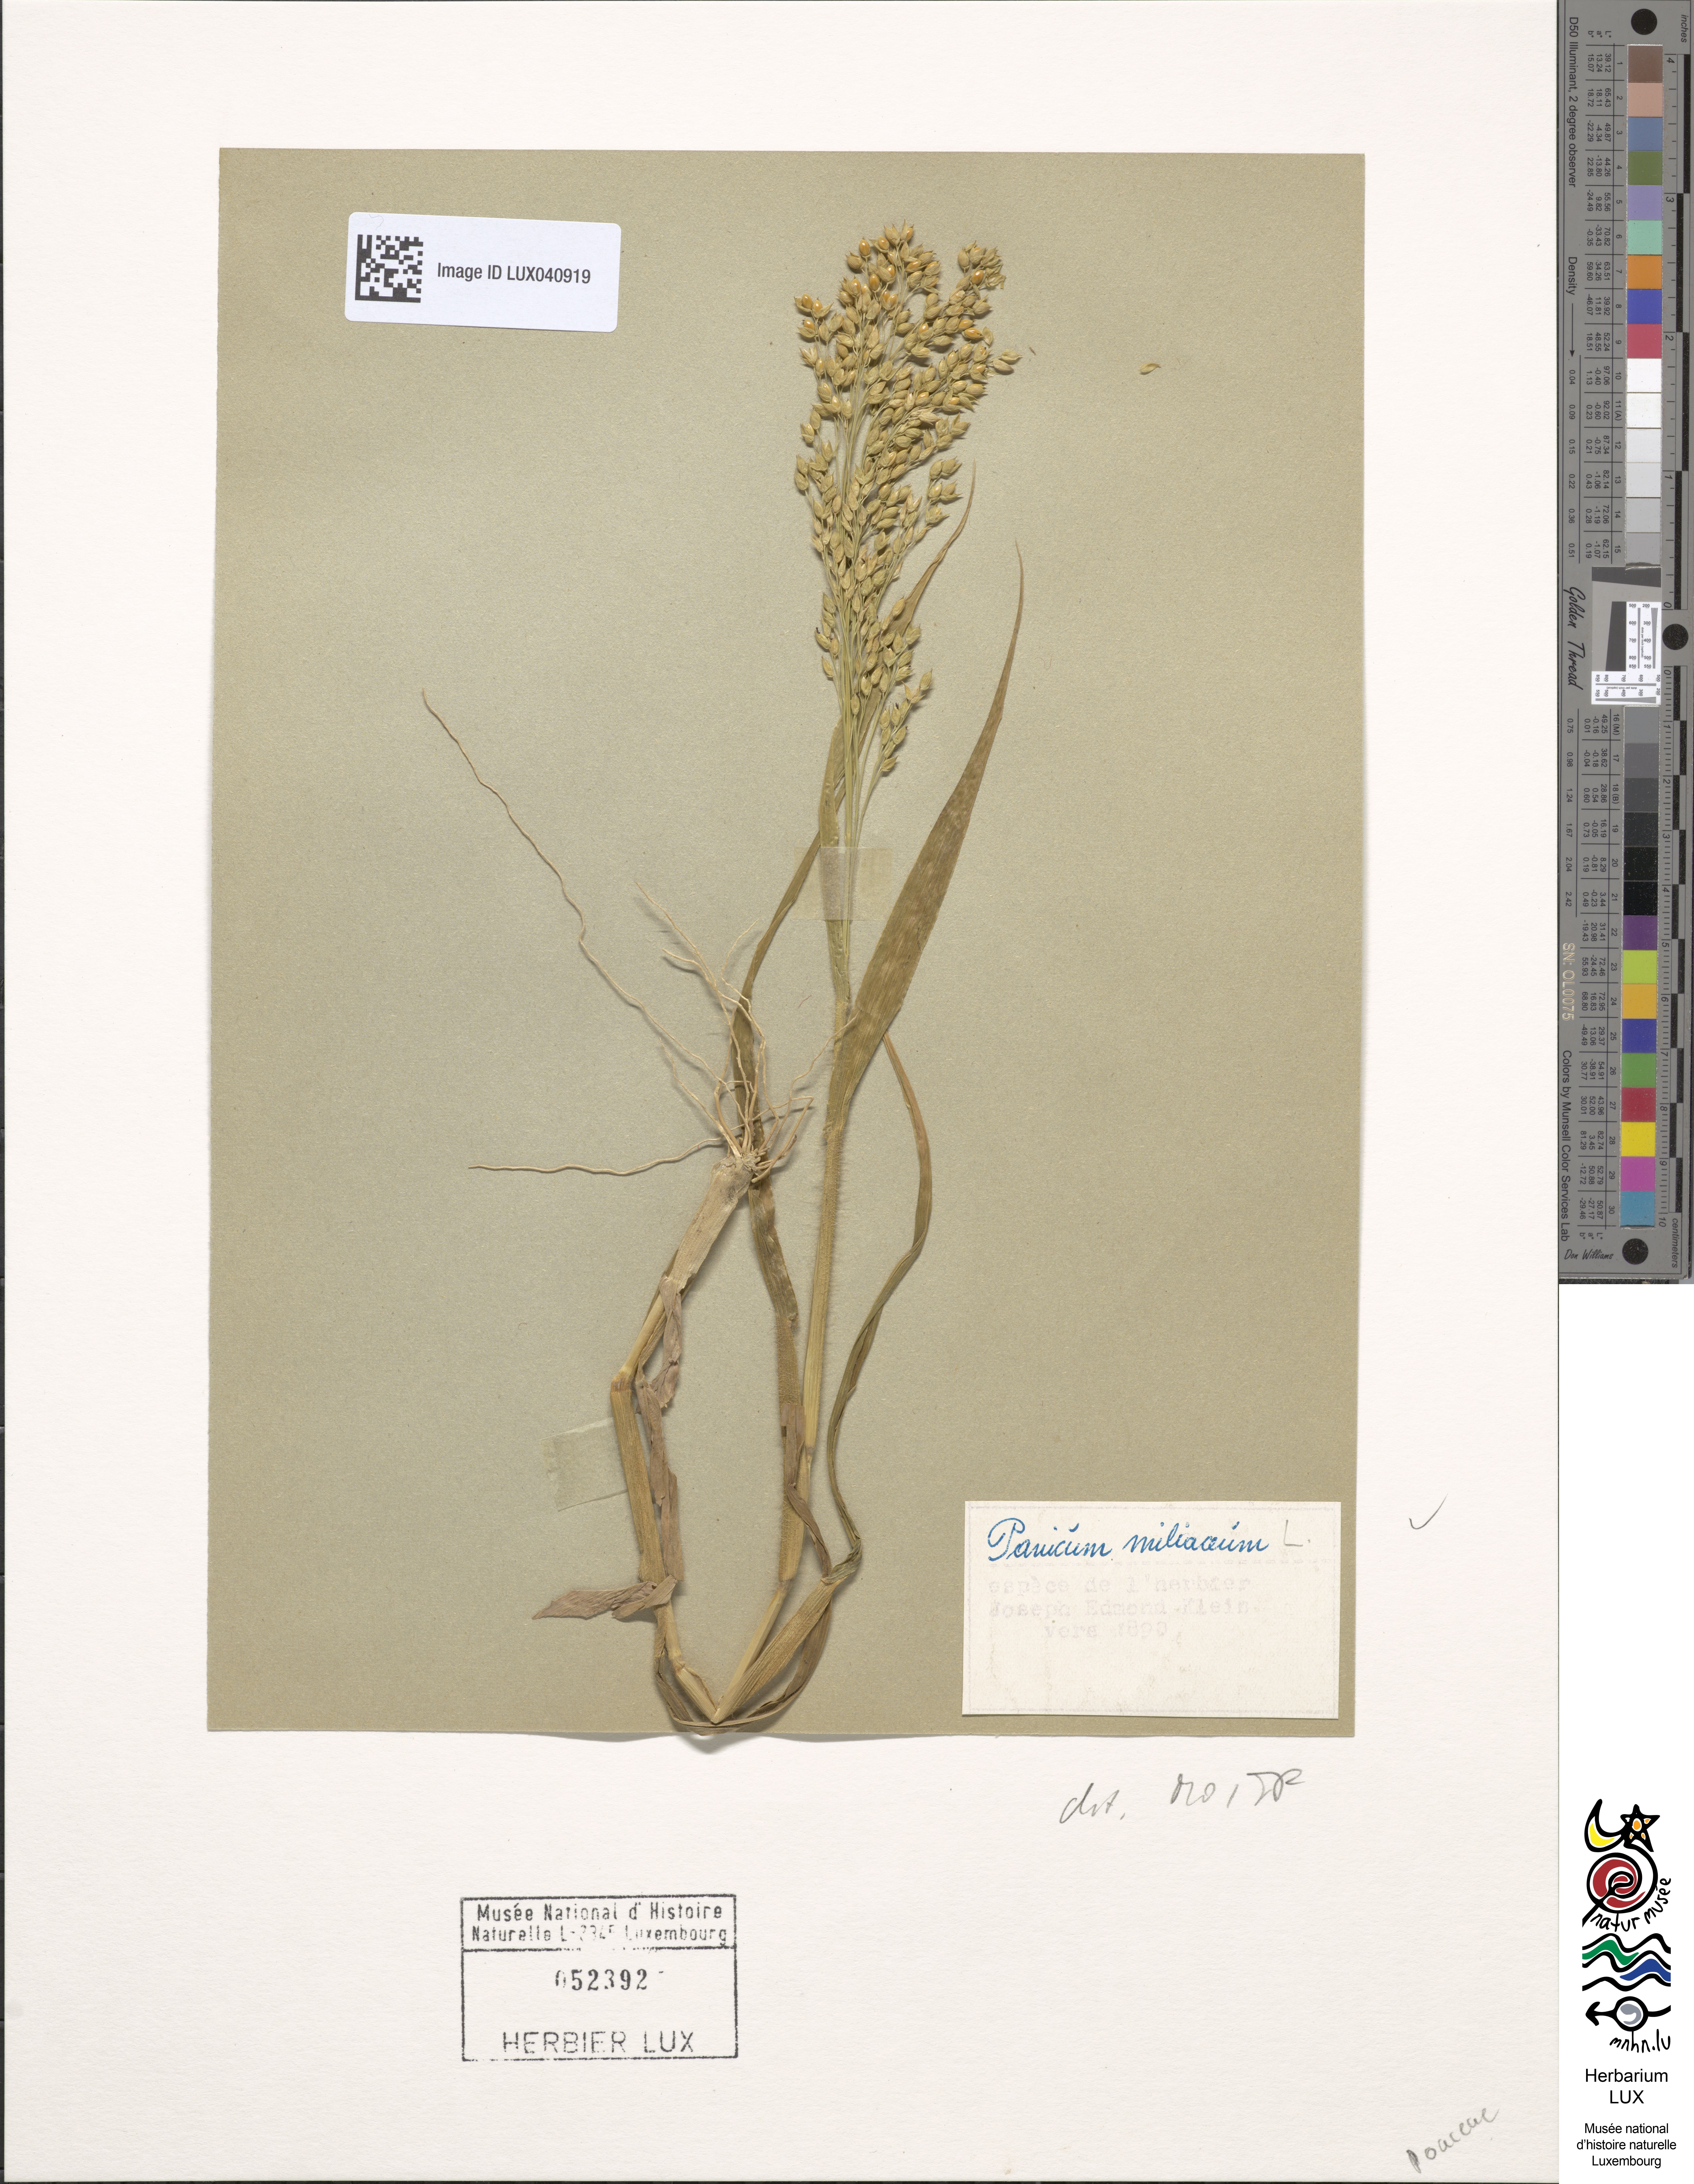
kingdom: Plantae
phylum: Tracheophyta
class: Liliopsida
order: Poales
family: Poaceae
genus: Panicum
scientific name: Panicum miliaceum
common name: Common millet
